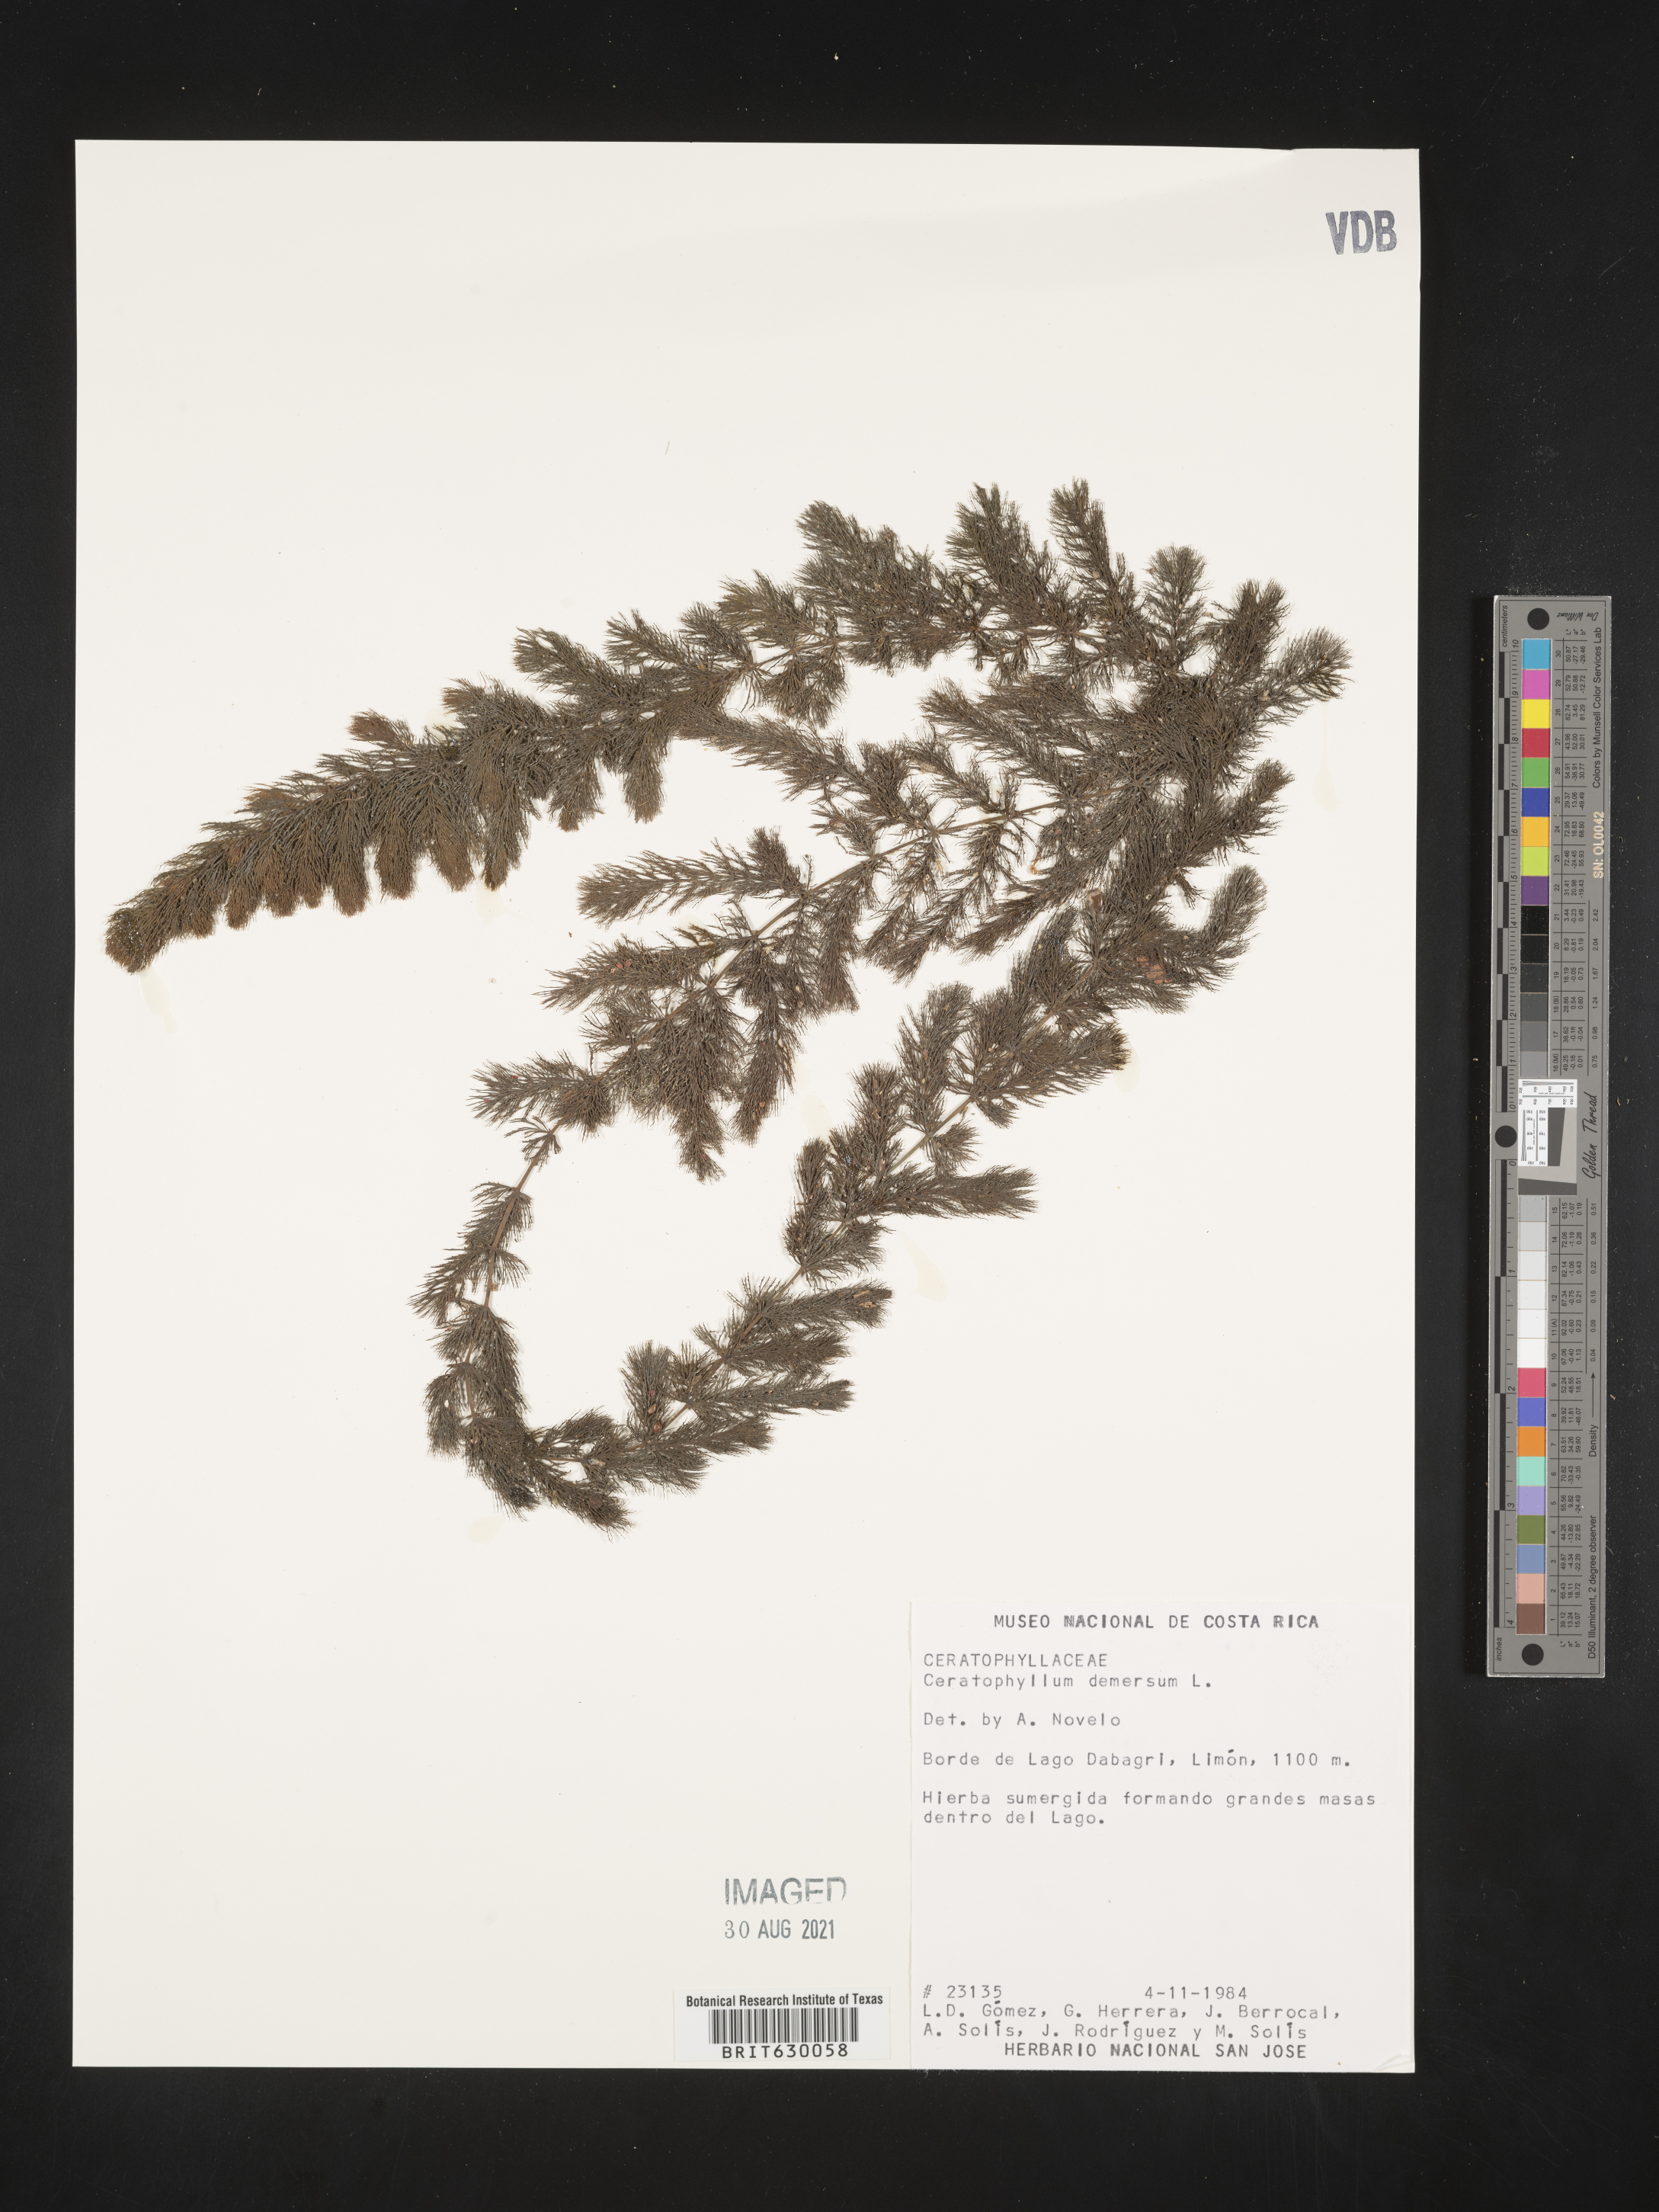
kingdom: Plantae
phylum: Tracheophyta
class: Magnoliopsida
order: Ceratophyllales
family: Ceratophyllaceae
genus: Ceratophyllum
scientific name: Ceratophyllum demersum
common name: Rigid hornwort
